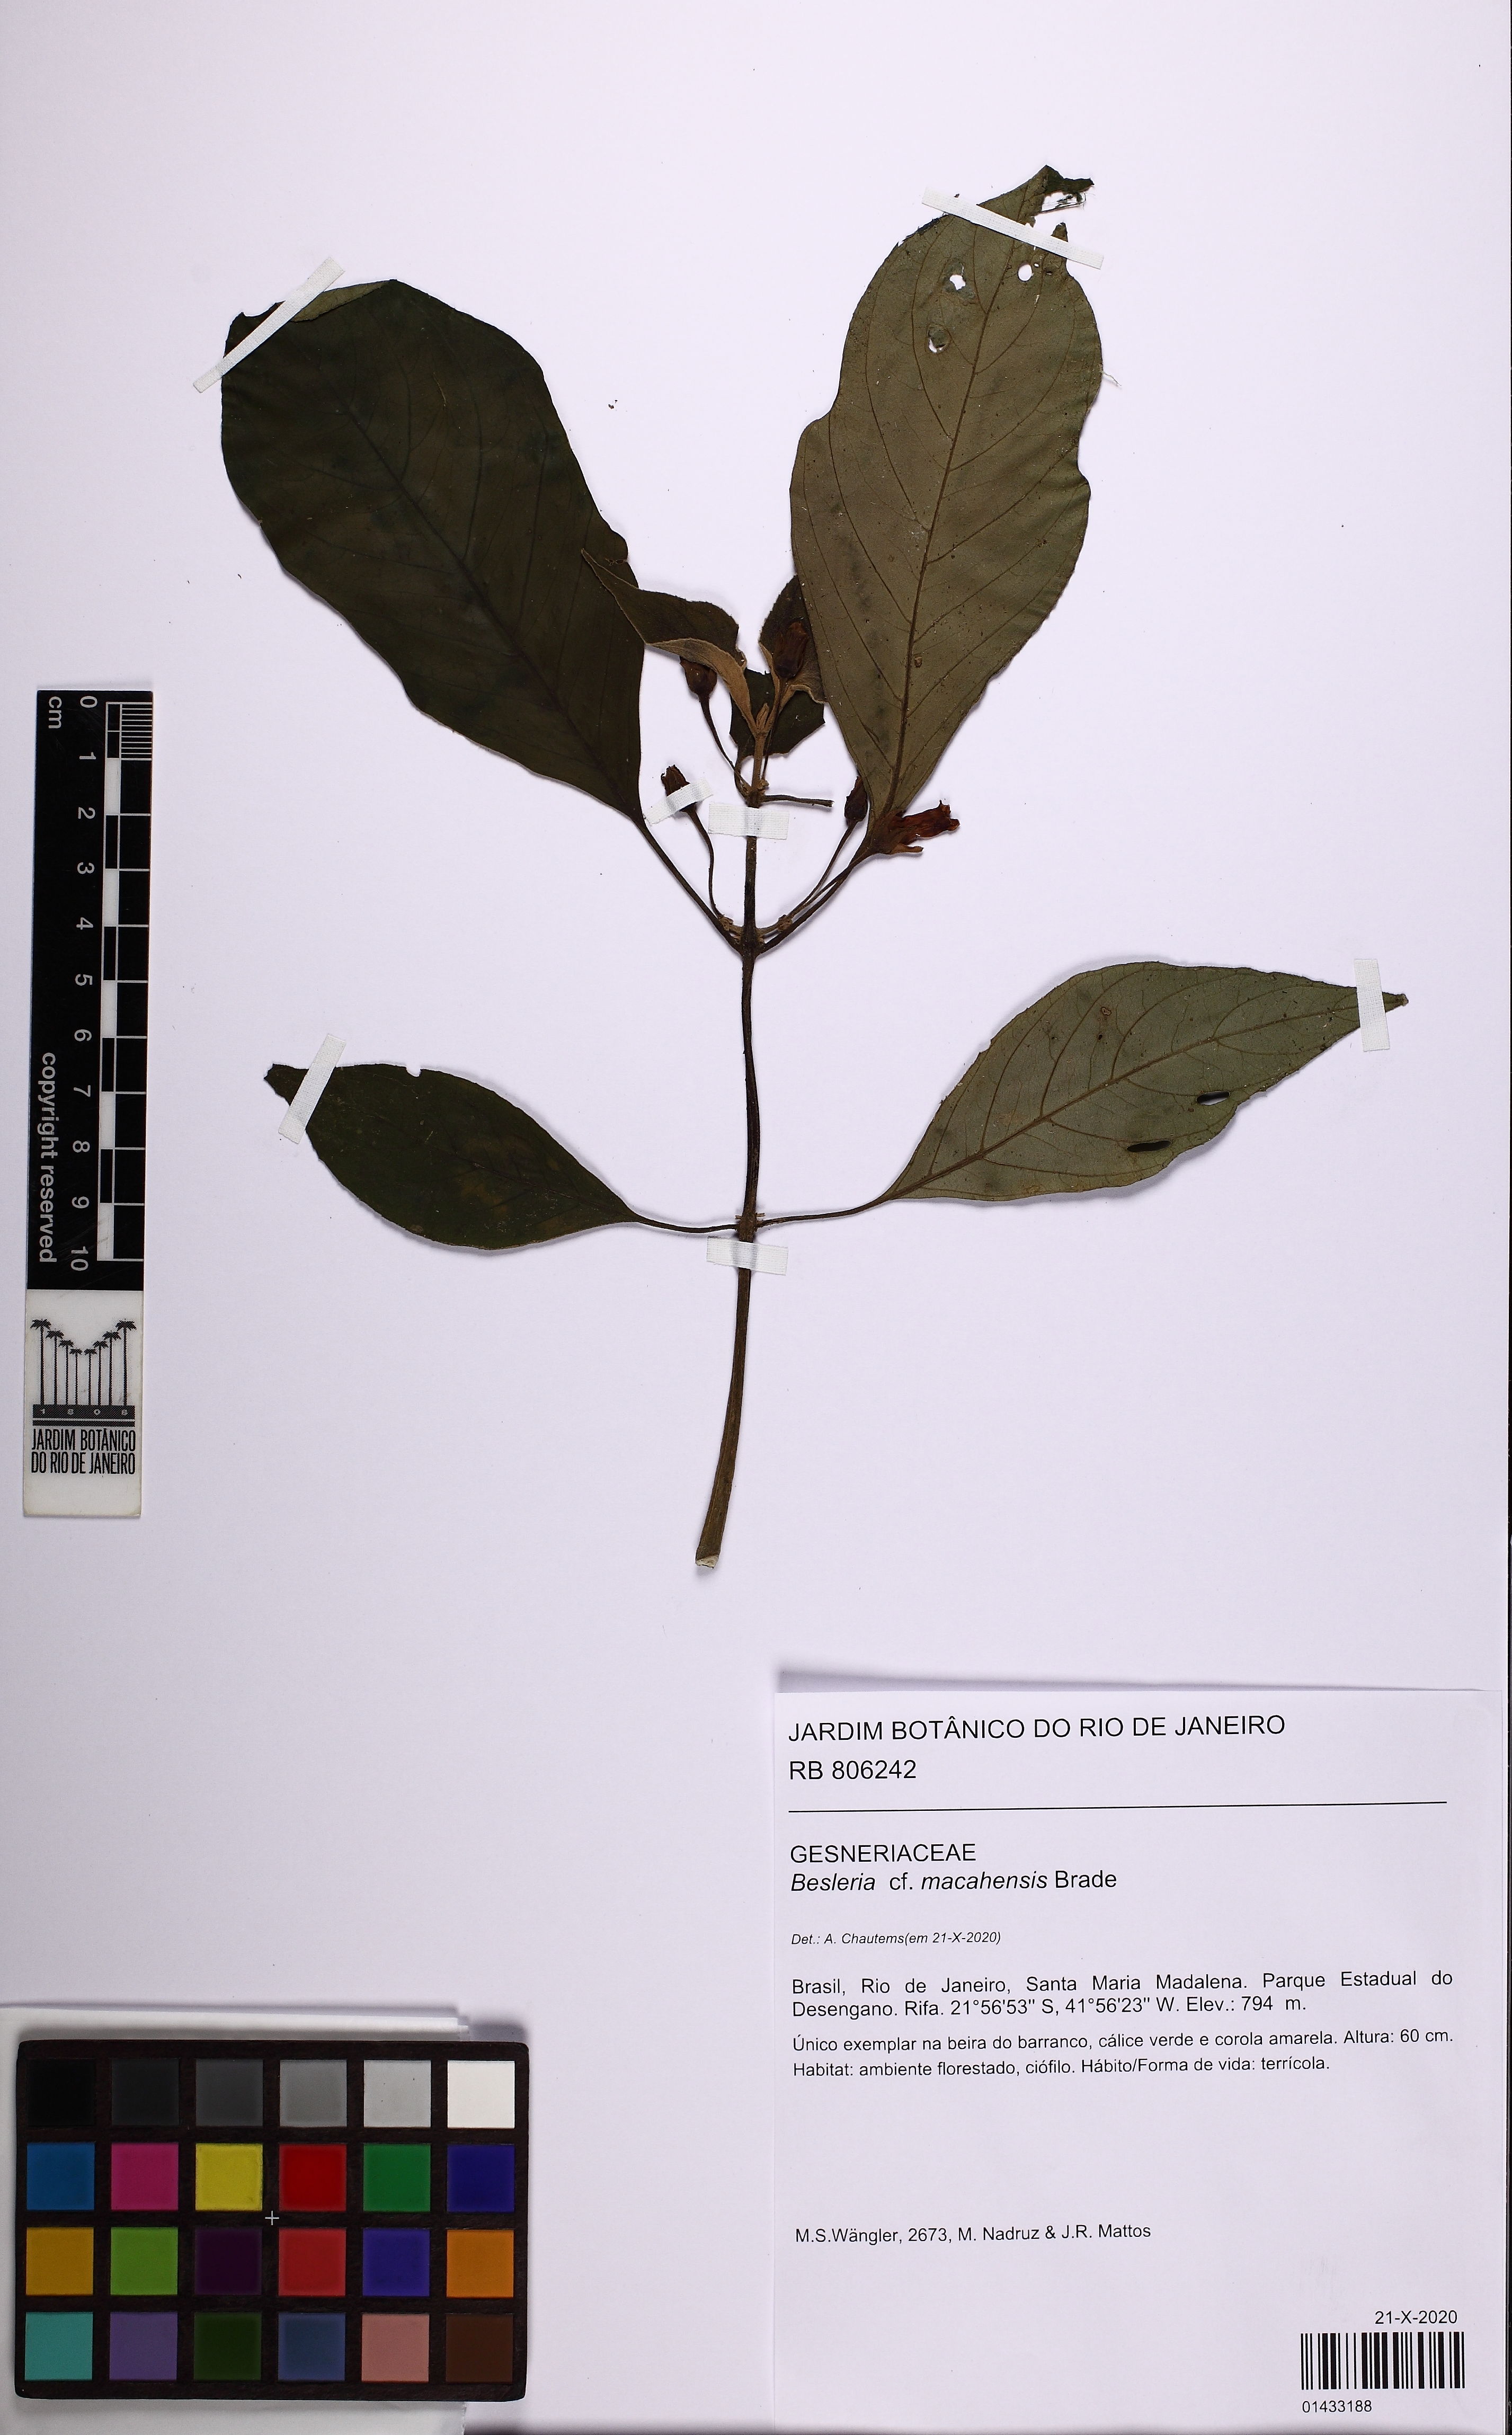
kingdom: Plantae
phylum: Tracheophyta
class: Magnoliopsida
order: Lamiales
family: Gesneriaceae
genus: Besleria
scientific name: Besleria macahensis
